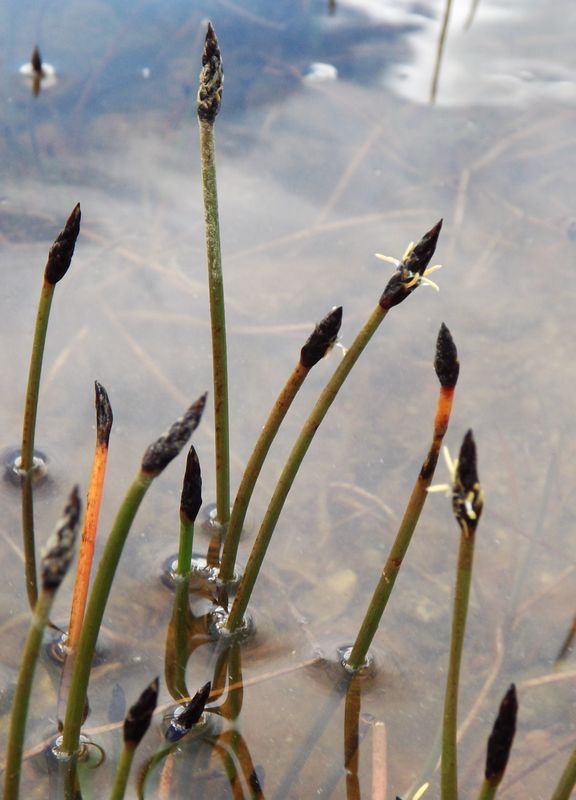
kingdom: Plantae
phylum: Tracheophyta
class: Liliopsida
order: Poales
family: Cyperaceae
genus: Eleocharis
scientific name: Eleocharis uniglumis
